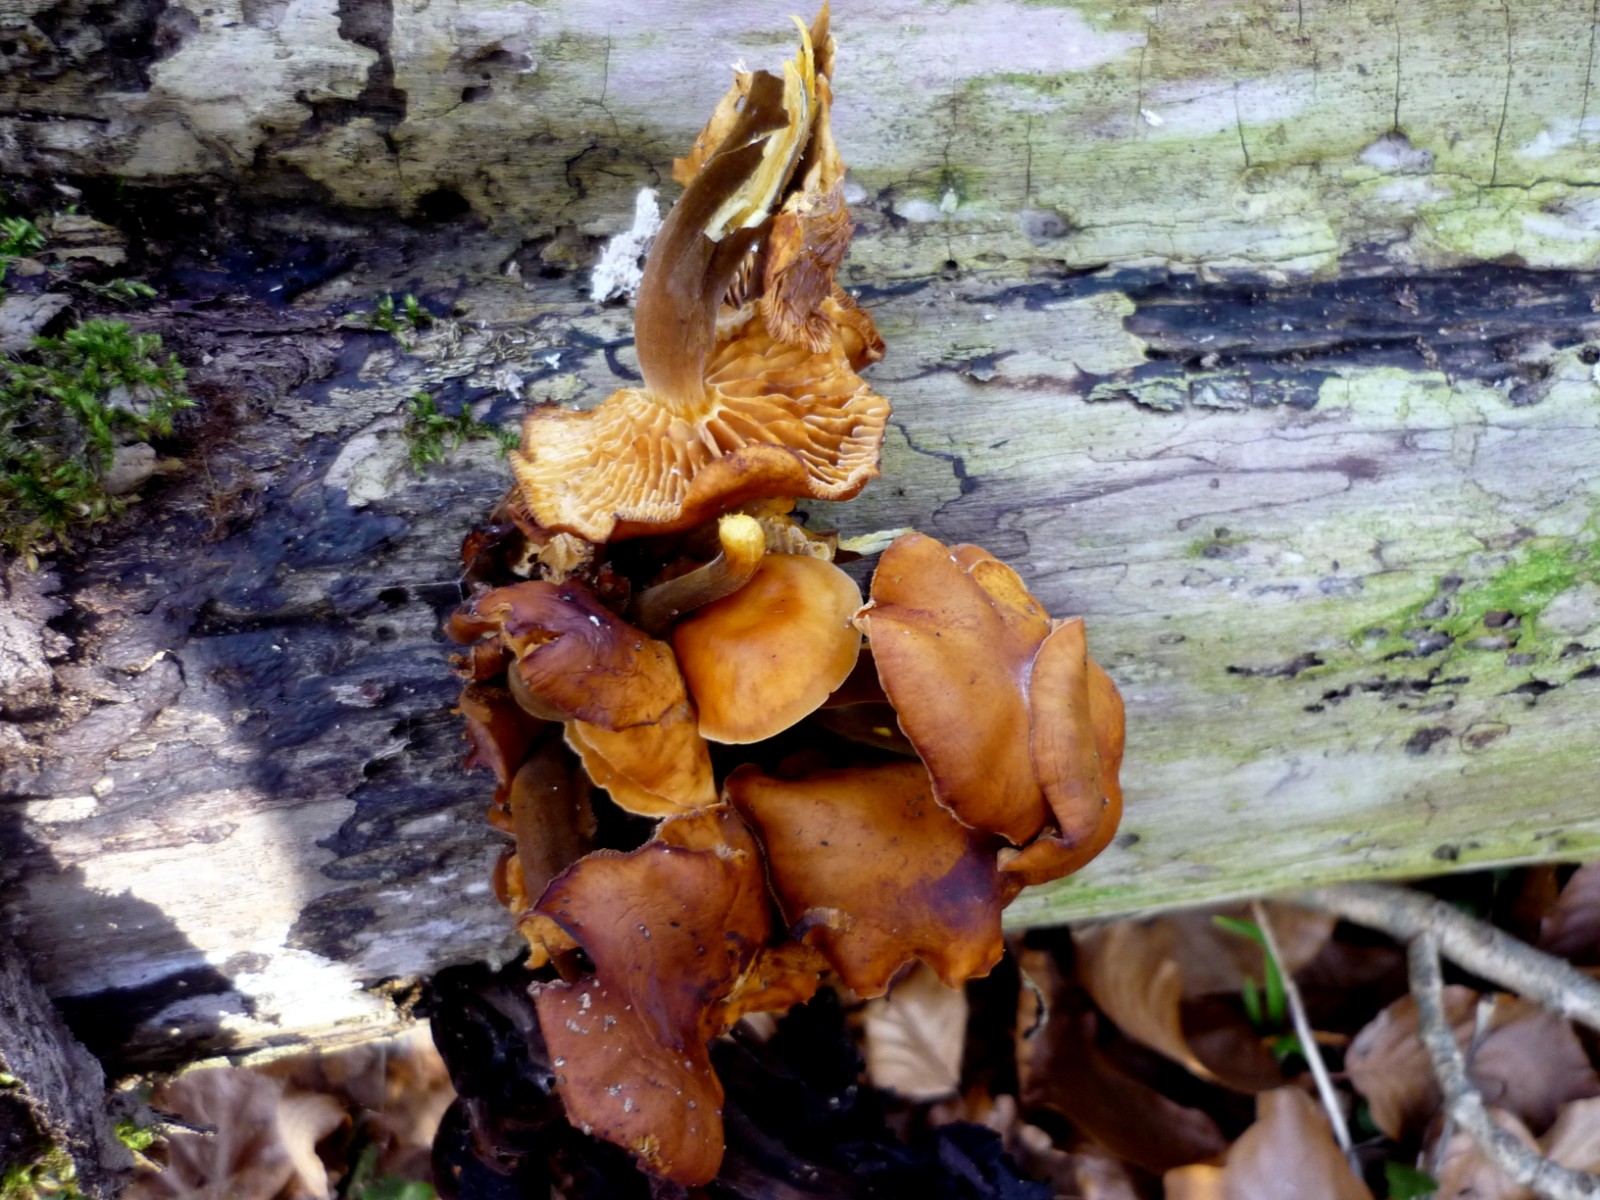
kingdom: Fungi
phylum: Basidiomycota
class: Agaricomycetes
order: Agaricales
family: Physalacriaceae
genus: Flammulina
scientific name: Flammulina velutipes
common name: gul fløjlsfod
